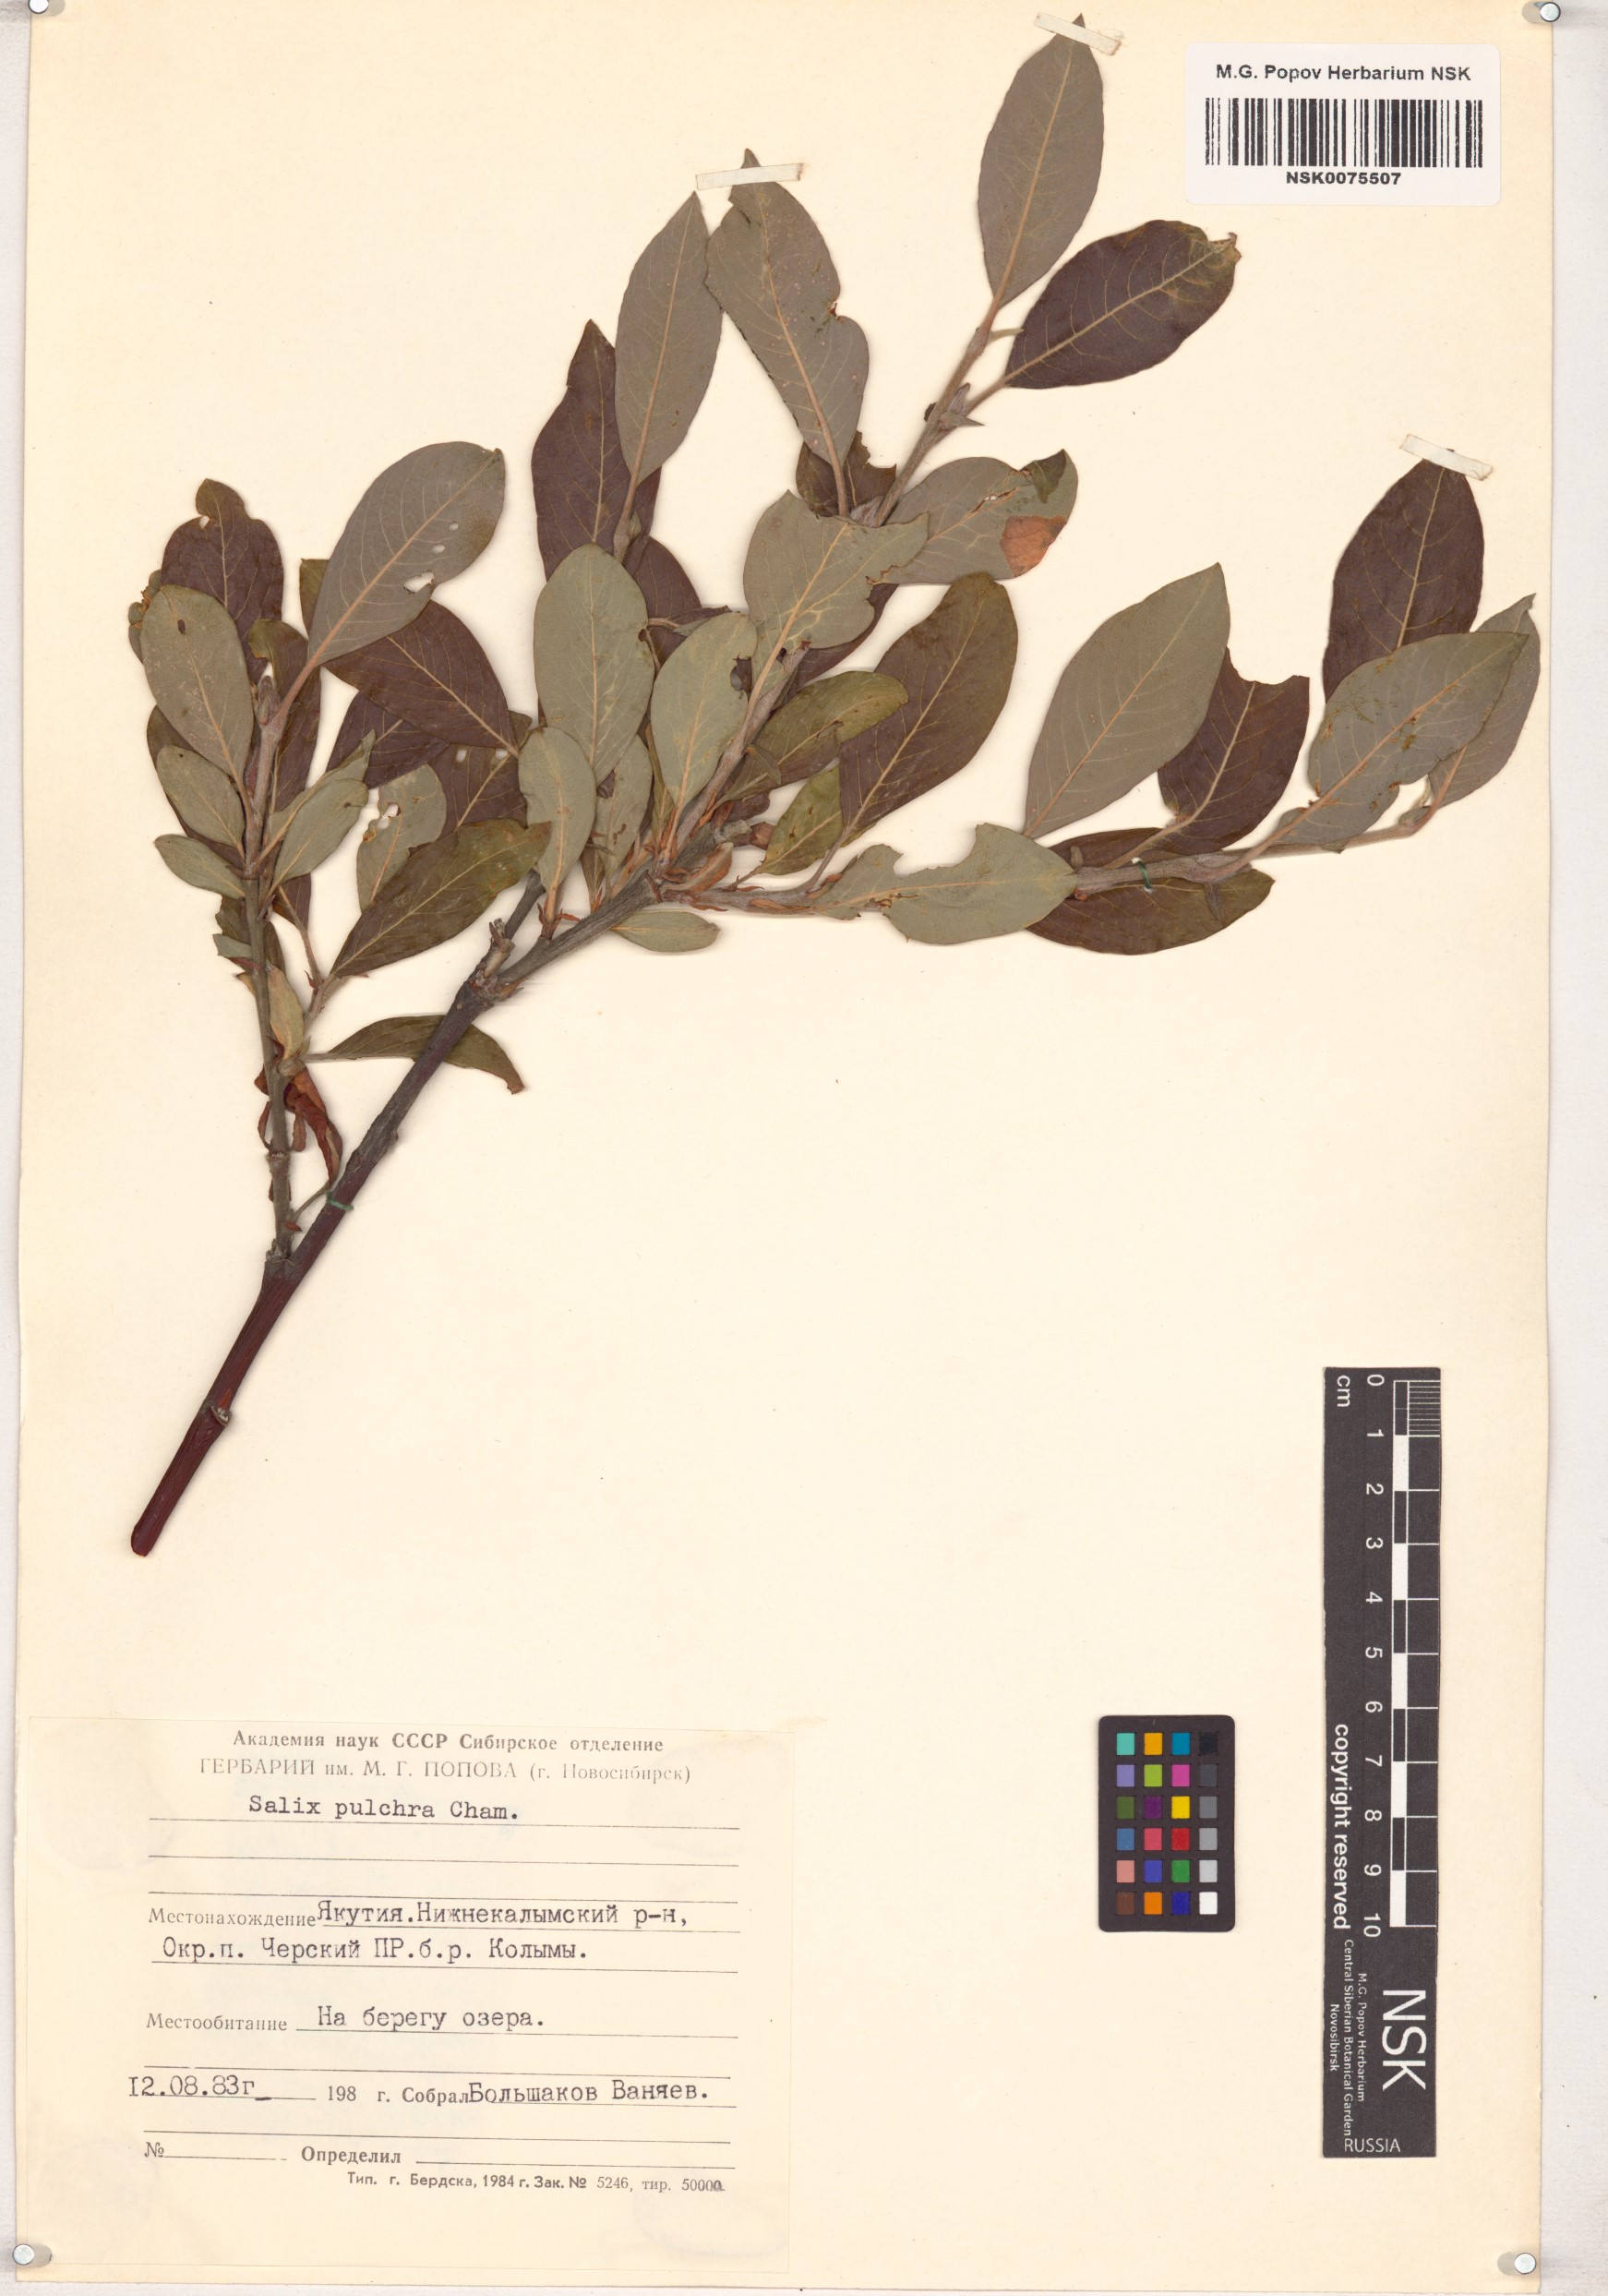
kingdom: Plantae
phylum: Tracheophyta
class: Magnoliopsida
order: Malpighiales
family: Salicaceae
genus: Salix
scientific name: Salix pulchra
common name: Diamond-leaved willow
